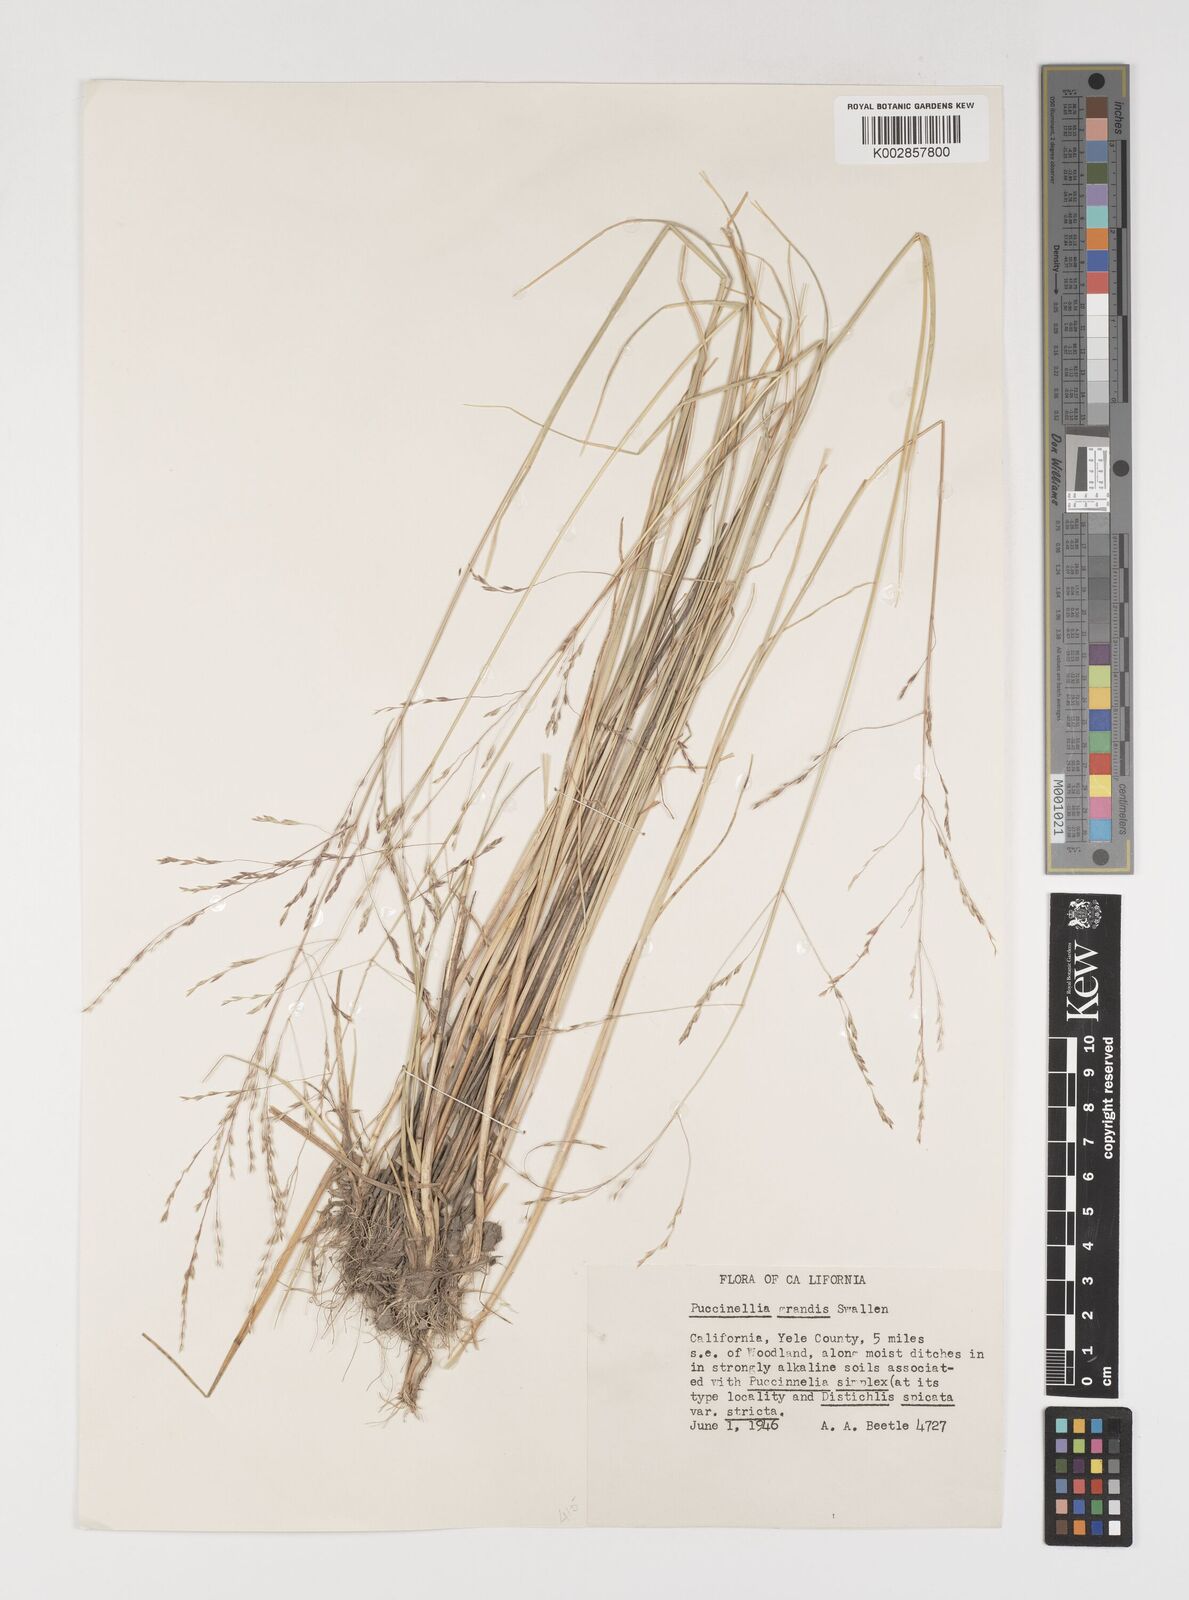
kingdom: Plantae
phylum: Tracheophyta
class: Liliopsida
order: Poales
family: Poaceae
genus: Puccinellia
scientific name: Puccinellia nutkaensis
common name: Nootka alkaligrass
